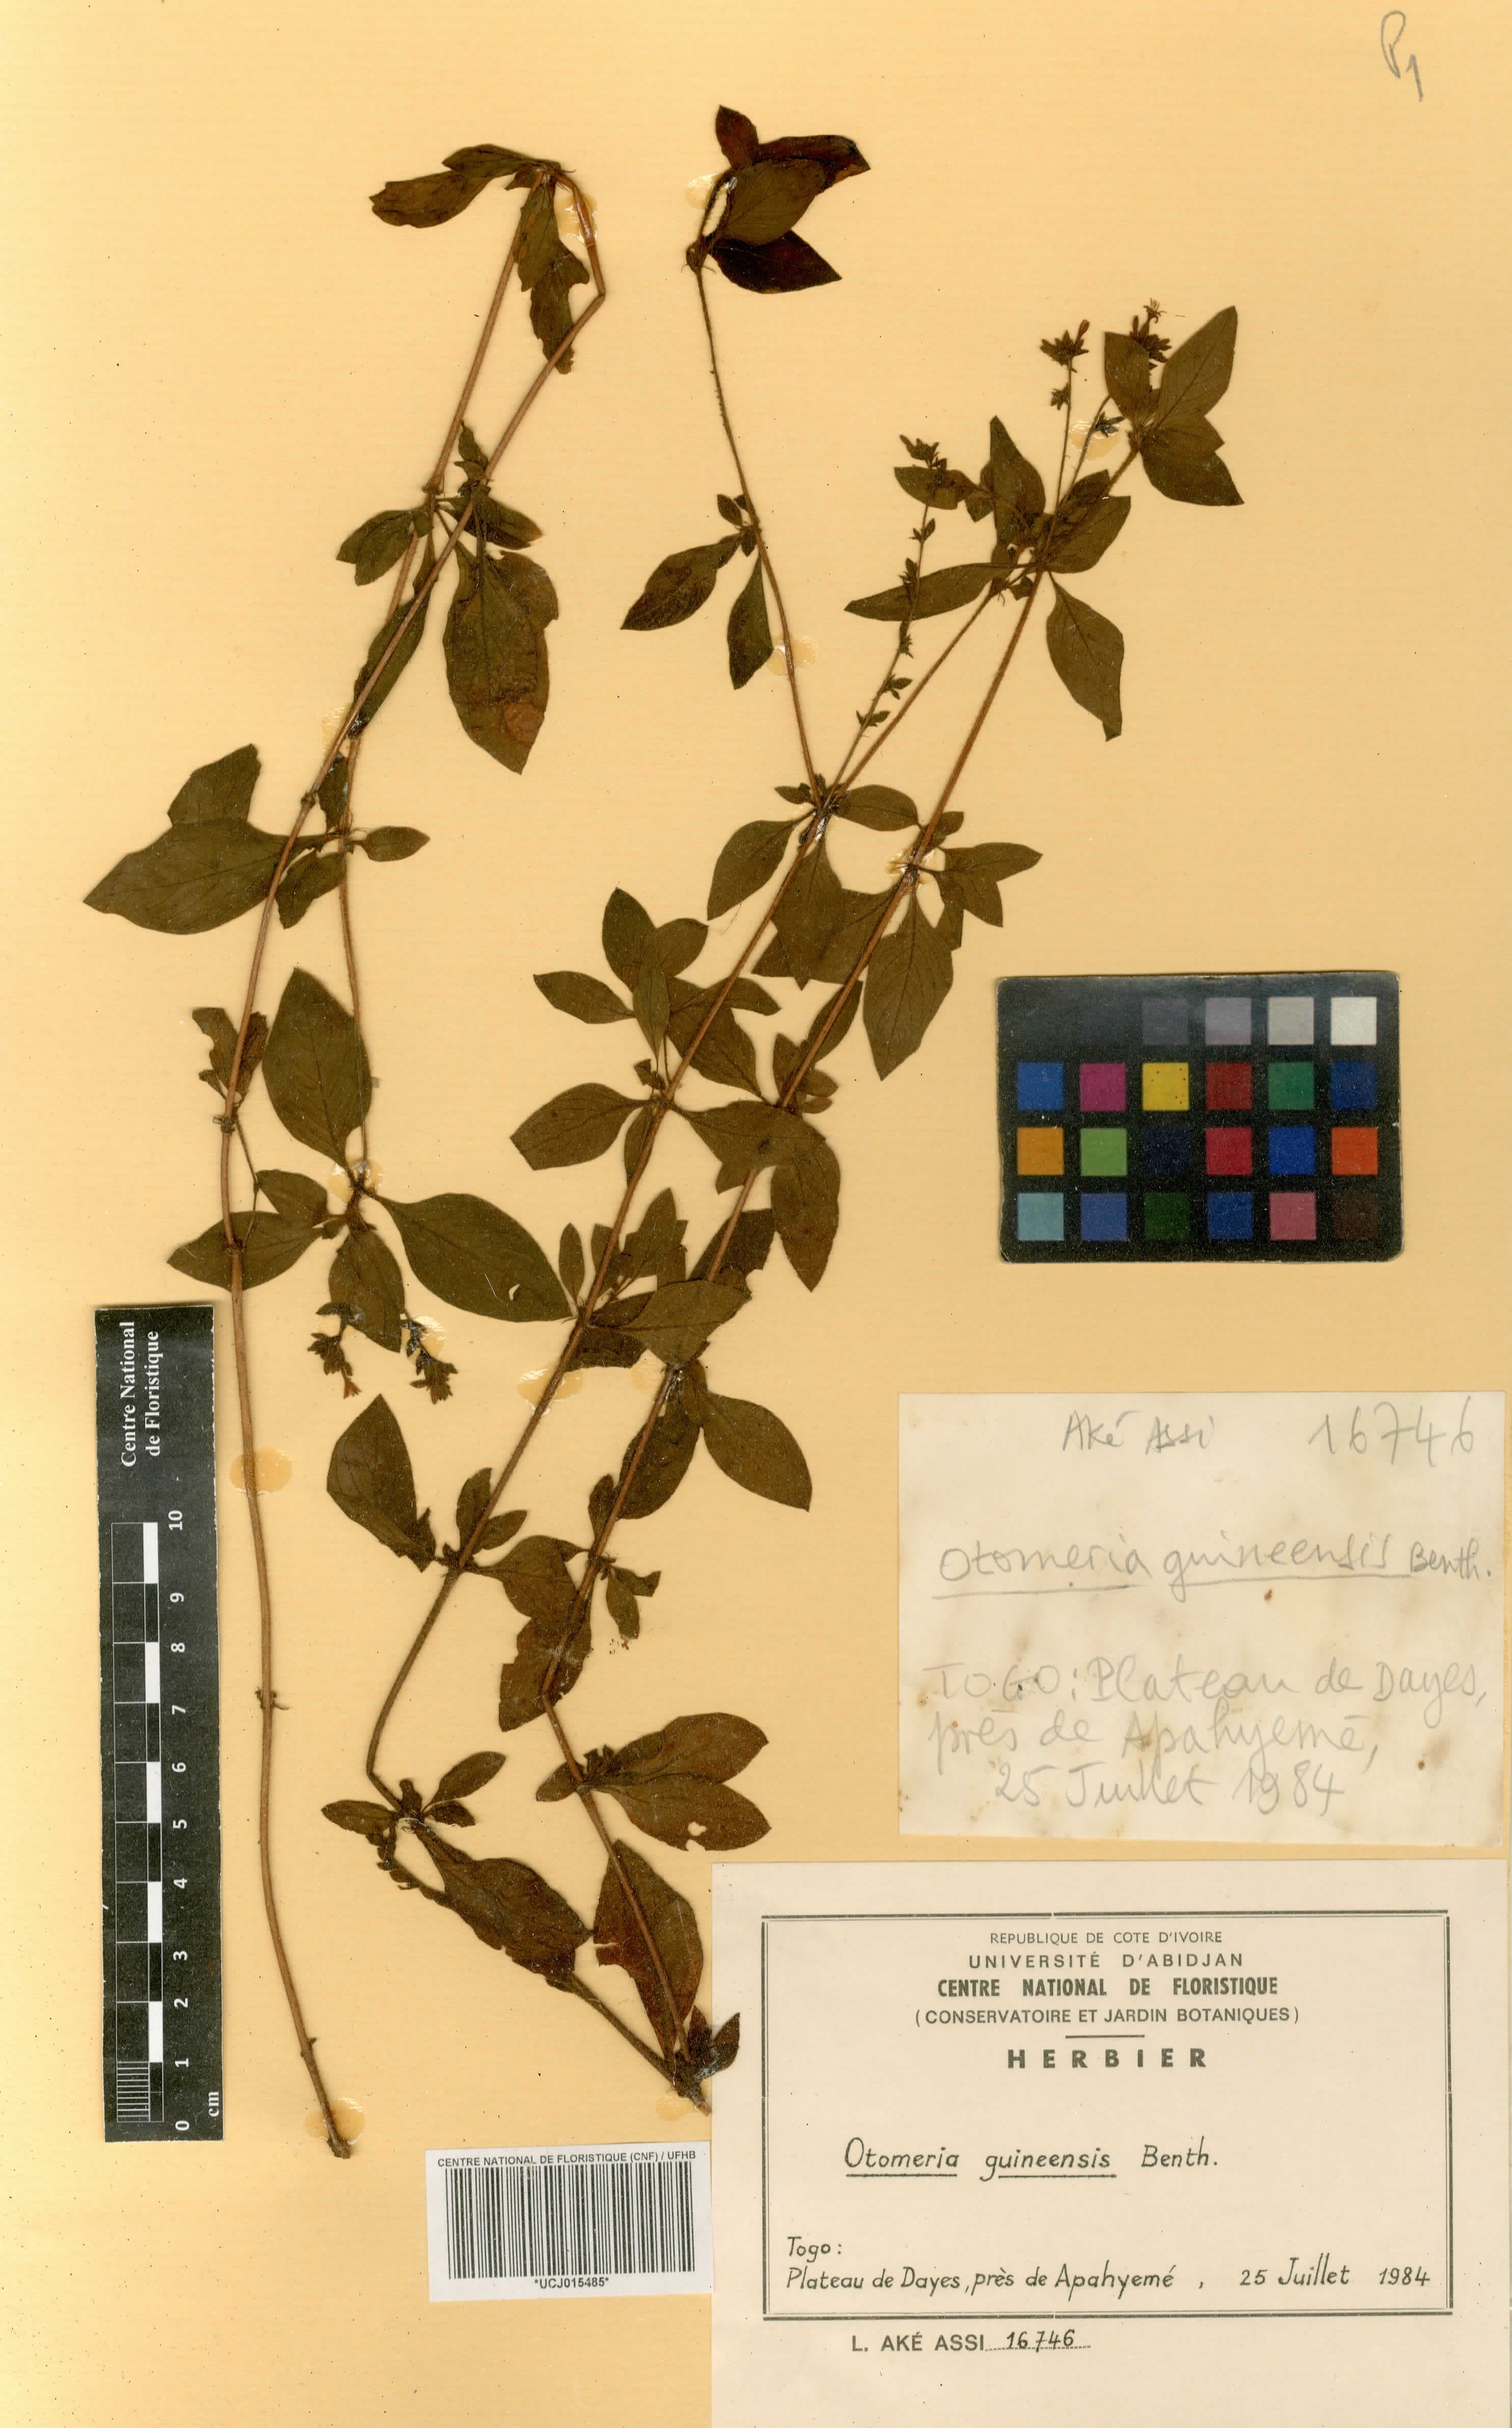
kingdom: Plantae
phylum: Tracheophyta
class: Magnoliopsida
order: Gentianales
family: Rubiaceae
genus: Otomeria
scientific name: Otomeria guineensis
